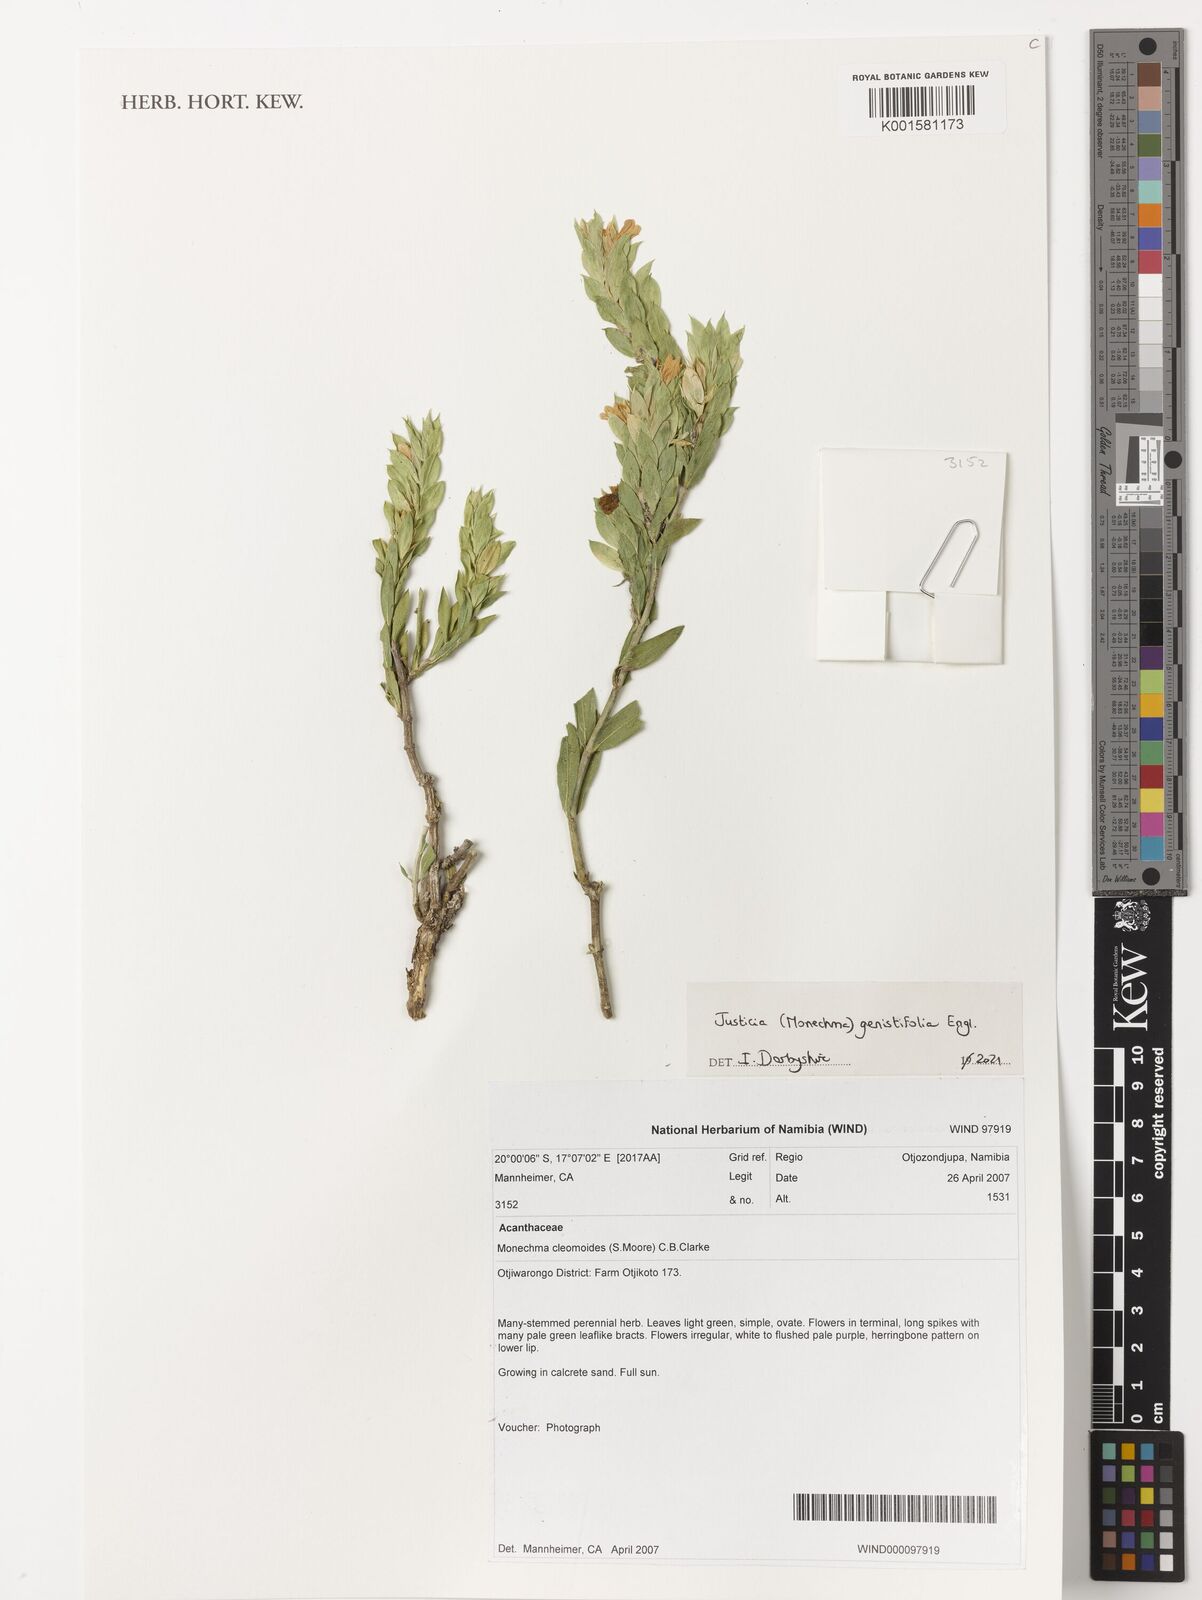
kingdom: Plantae
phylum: Tracheophyta
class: Magnoliopsida
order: Lamiales
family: Acanthaceae
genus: Monechma
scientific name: Monechma genistifolium
